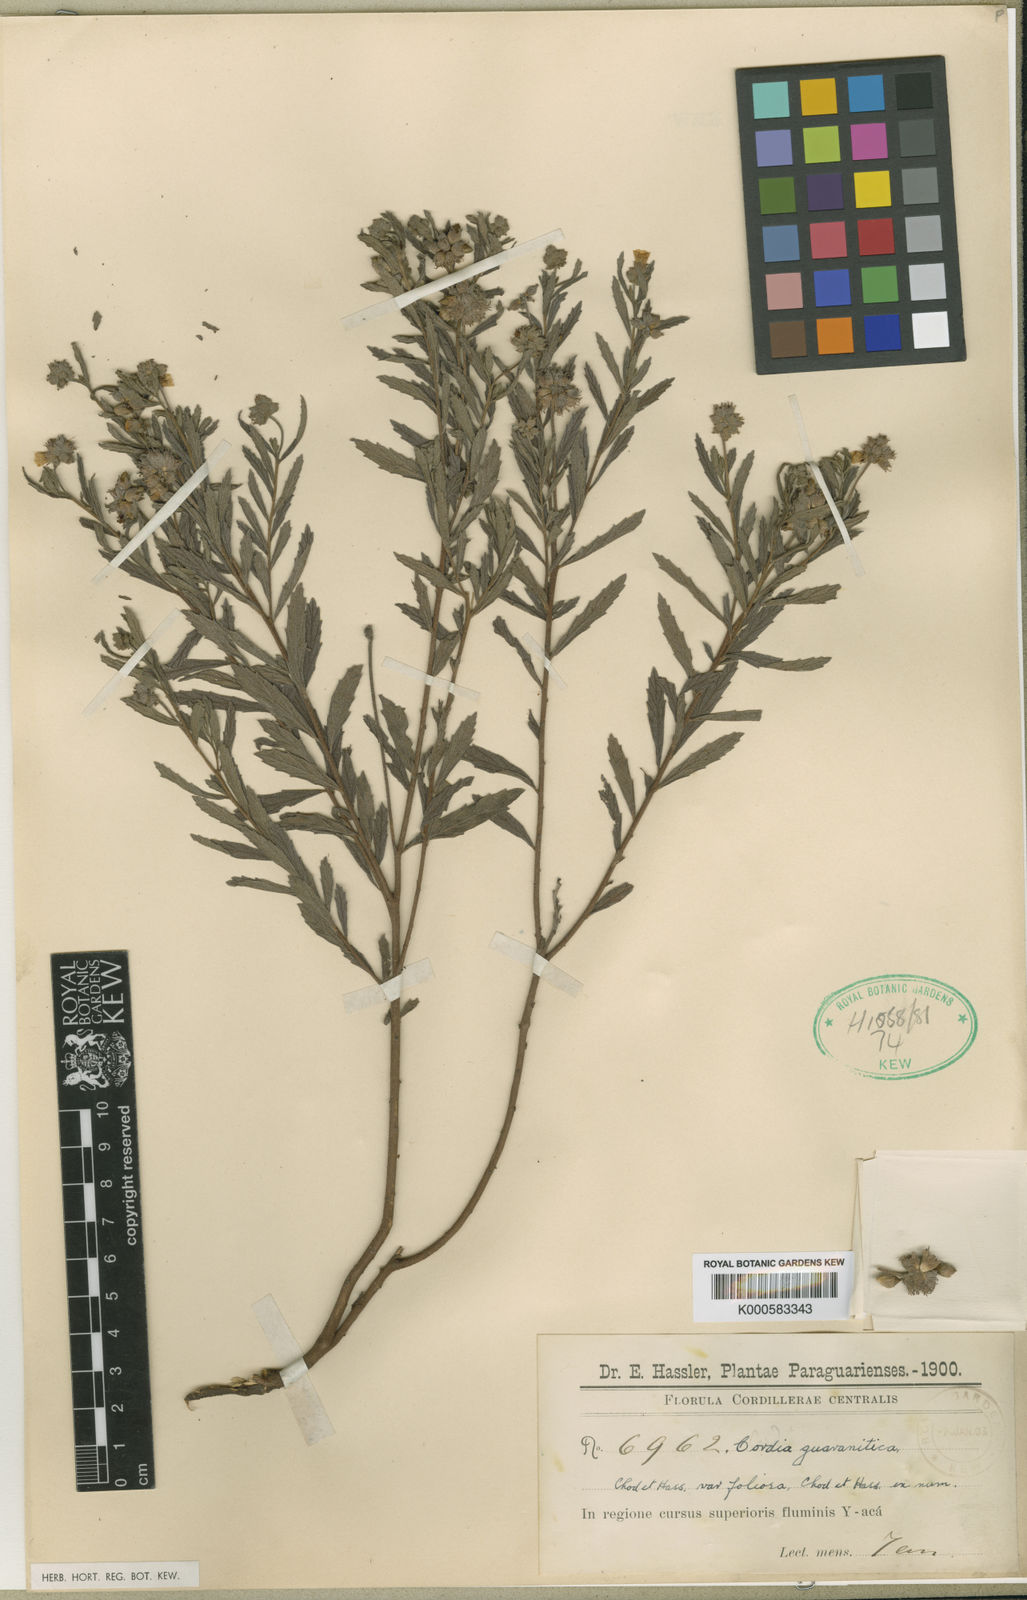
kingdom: Plantae
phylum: Tracheophyta
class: Magnoliopsida
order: Boraginales
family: Cordiaceae
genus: Varronia
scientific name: Varronia guaranitica
